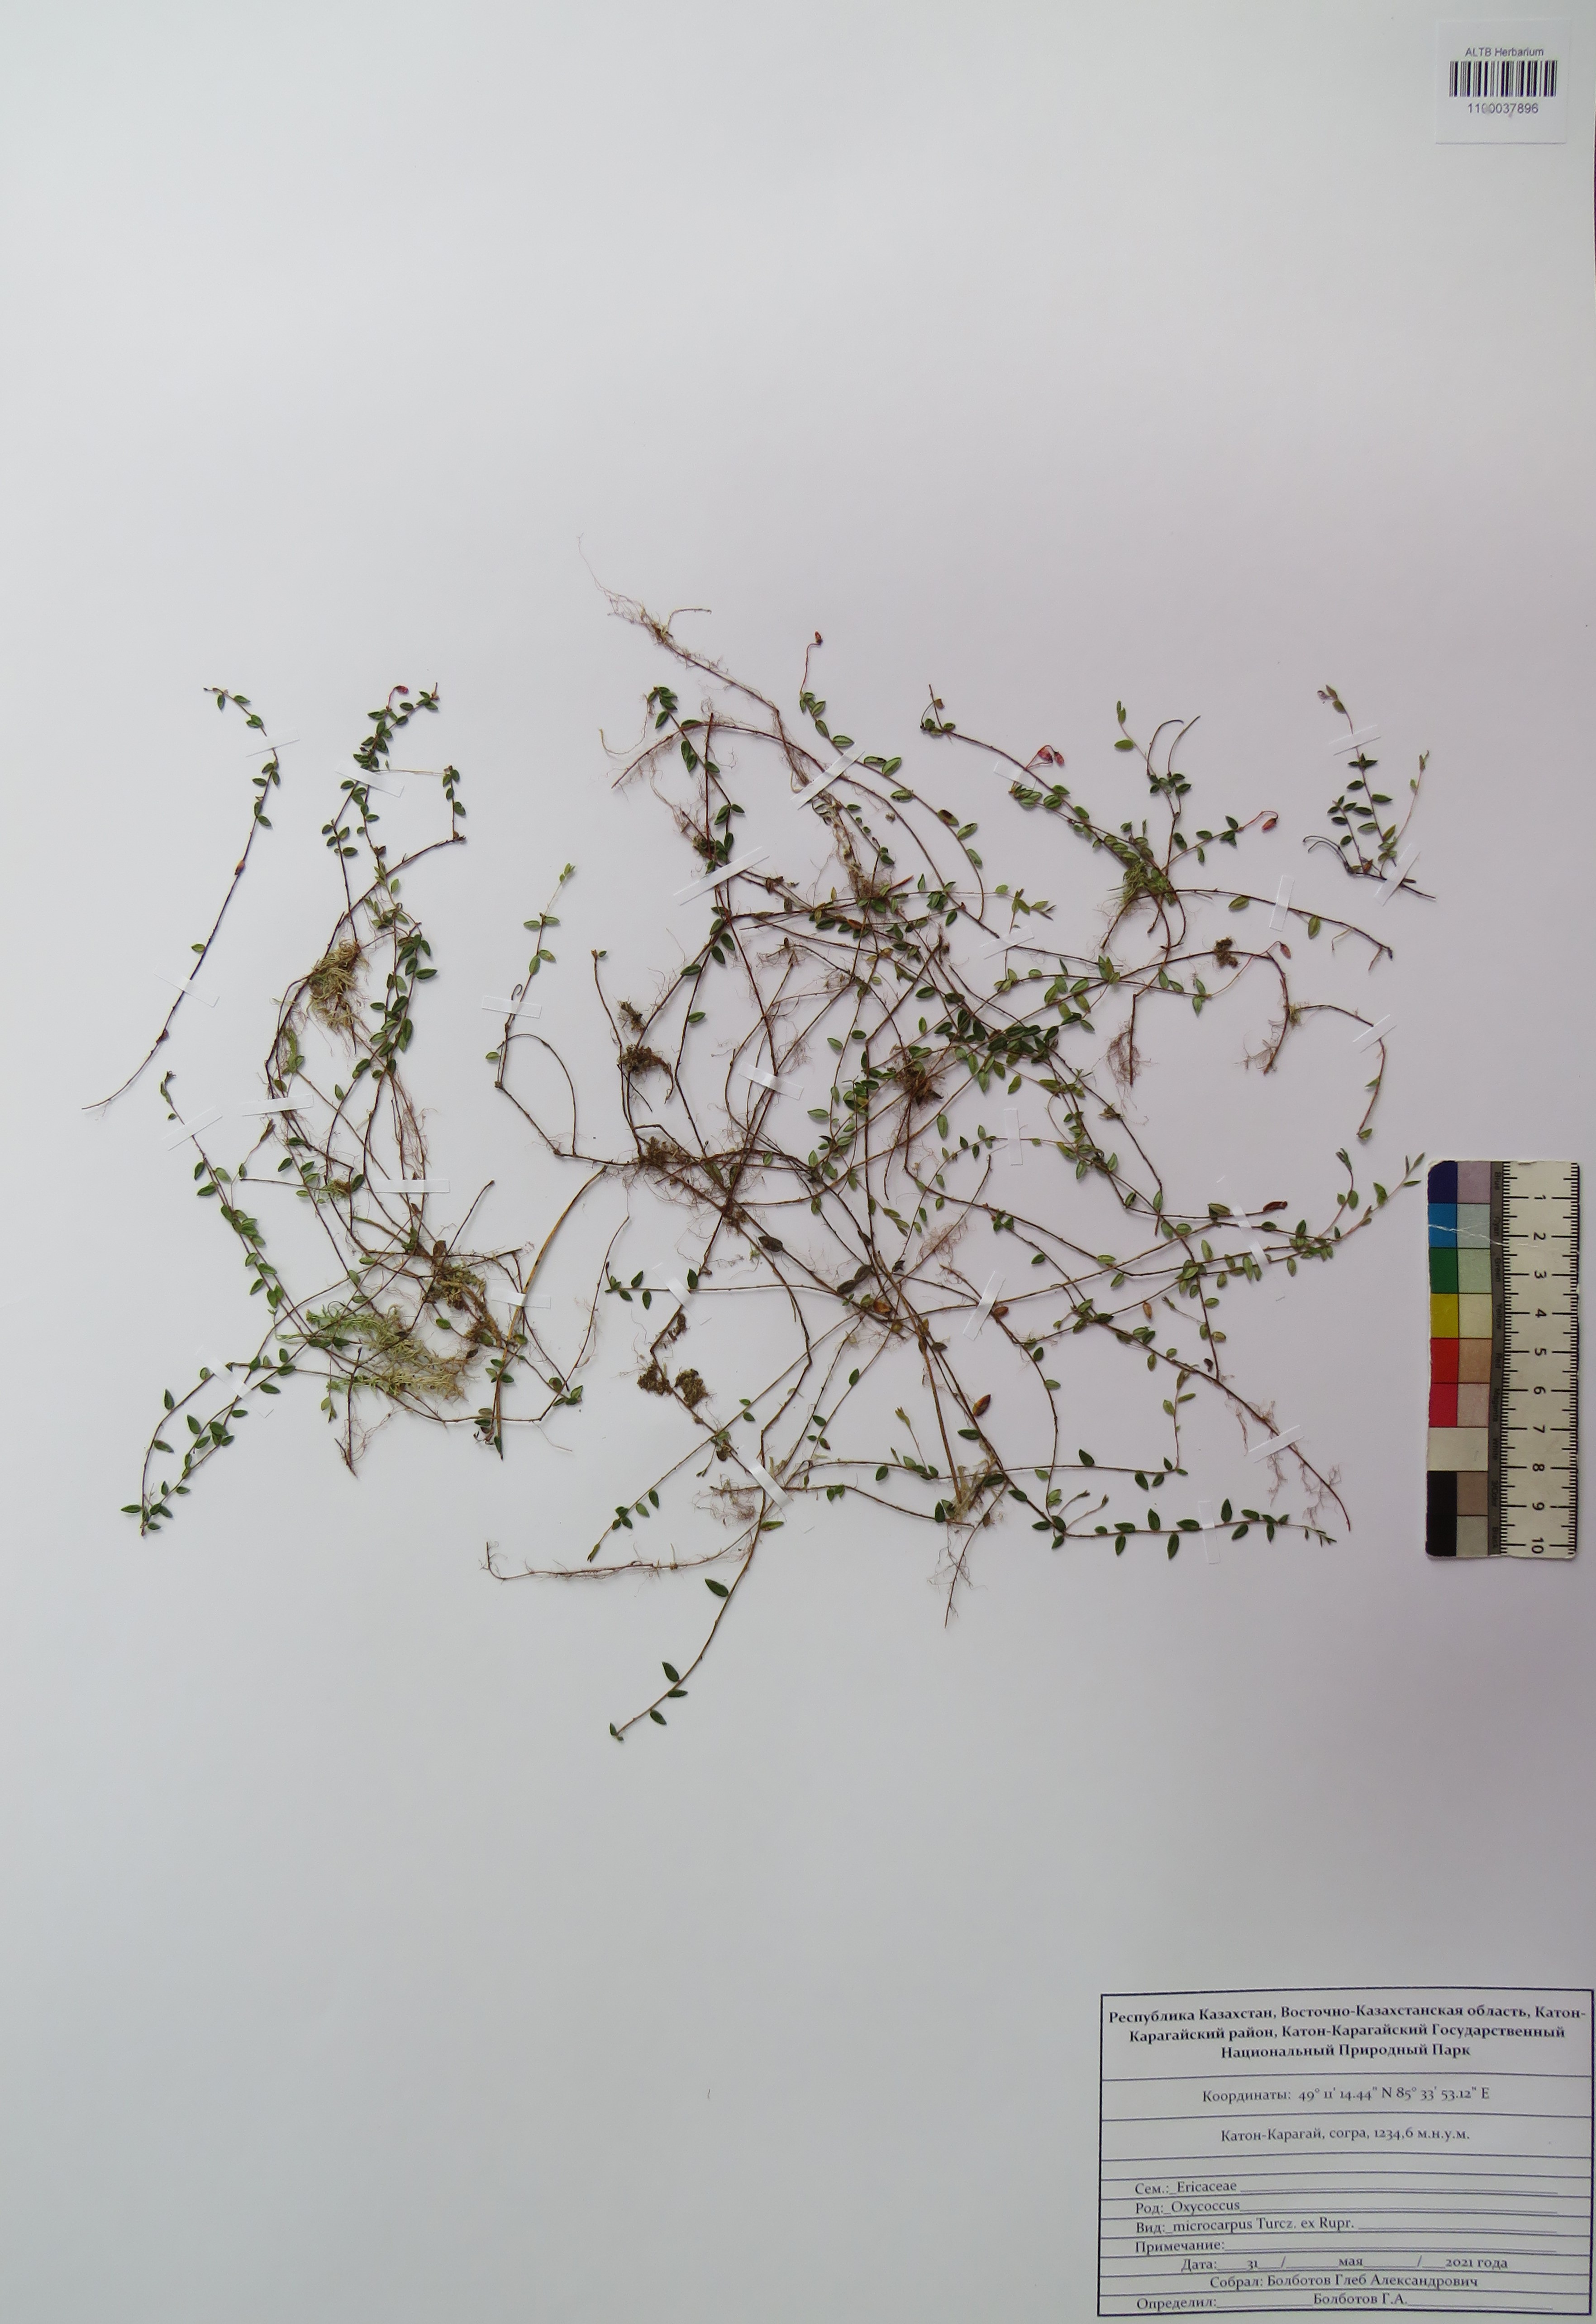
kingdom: Plantae
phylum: Tracheophyta
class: Magnoliopsida
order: Ericales
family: Ericaceae
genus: Vaccinium
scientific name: Vaccinium microcarpum
